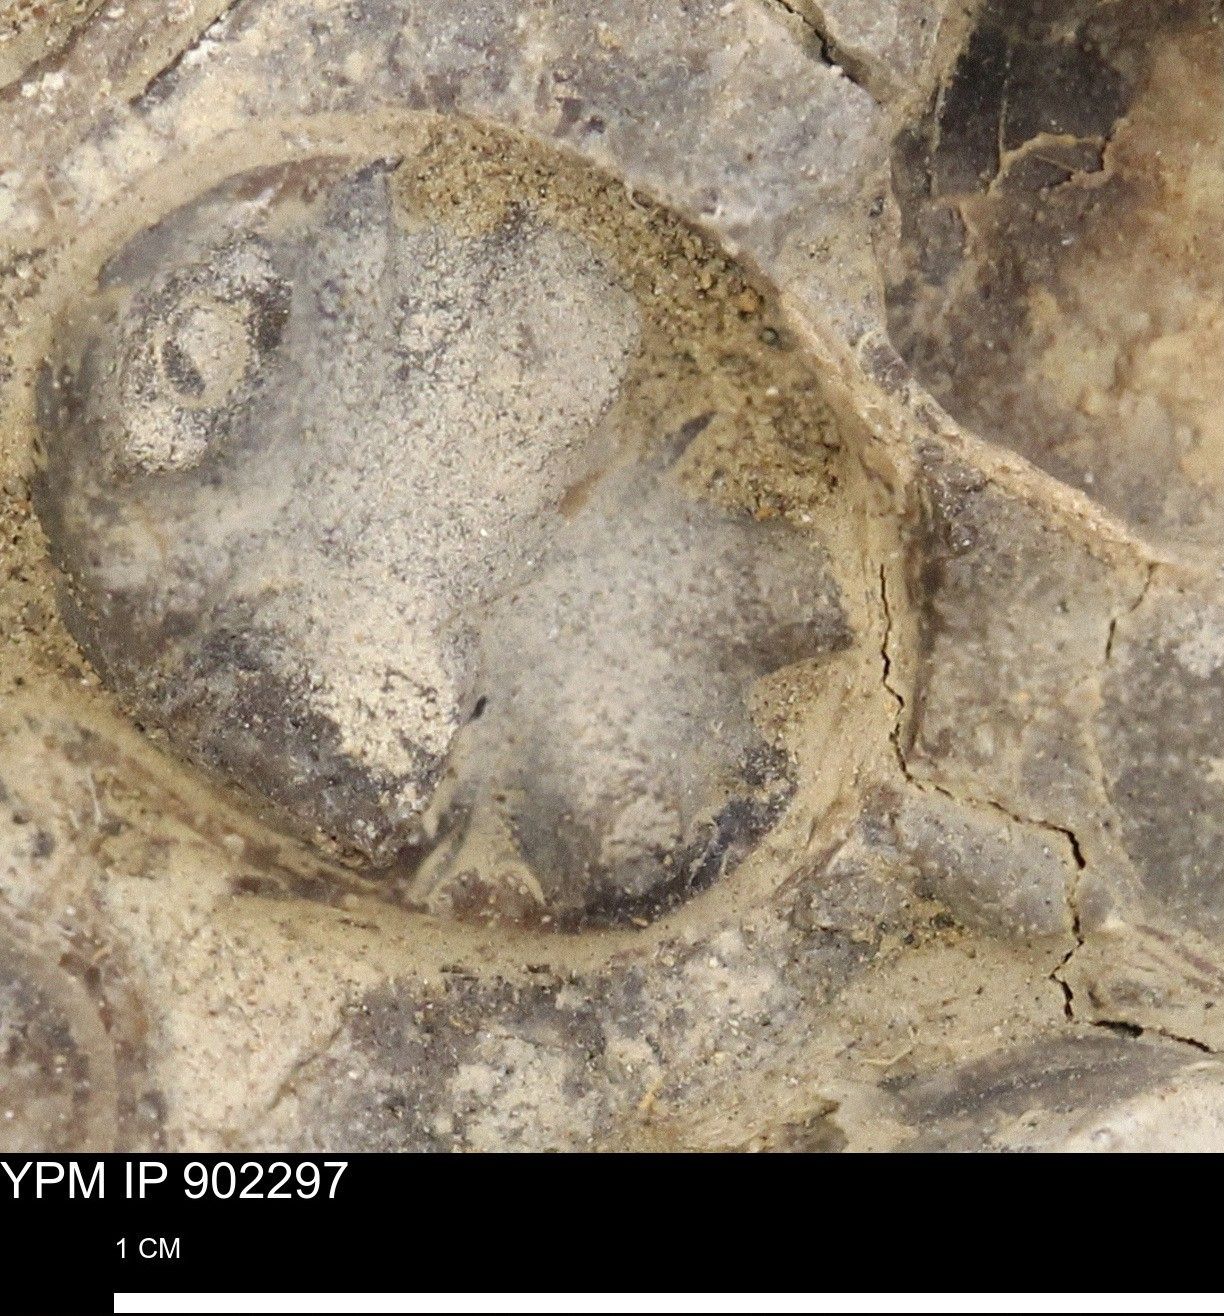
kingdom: Animalia
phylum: Mollusca
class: Cephalopoda
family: Baculitidae
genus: Baculites
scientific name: Baculites
